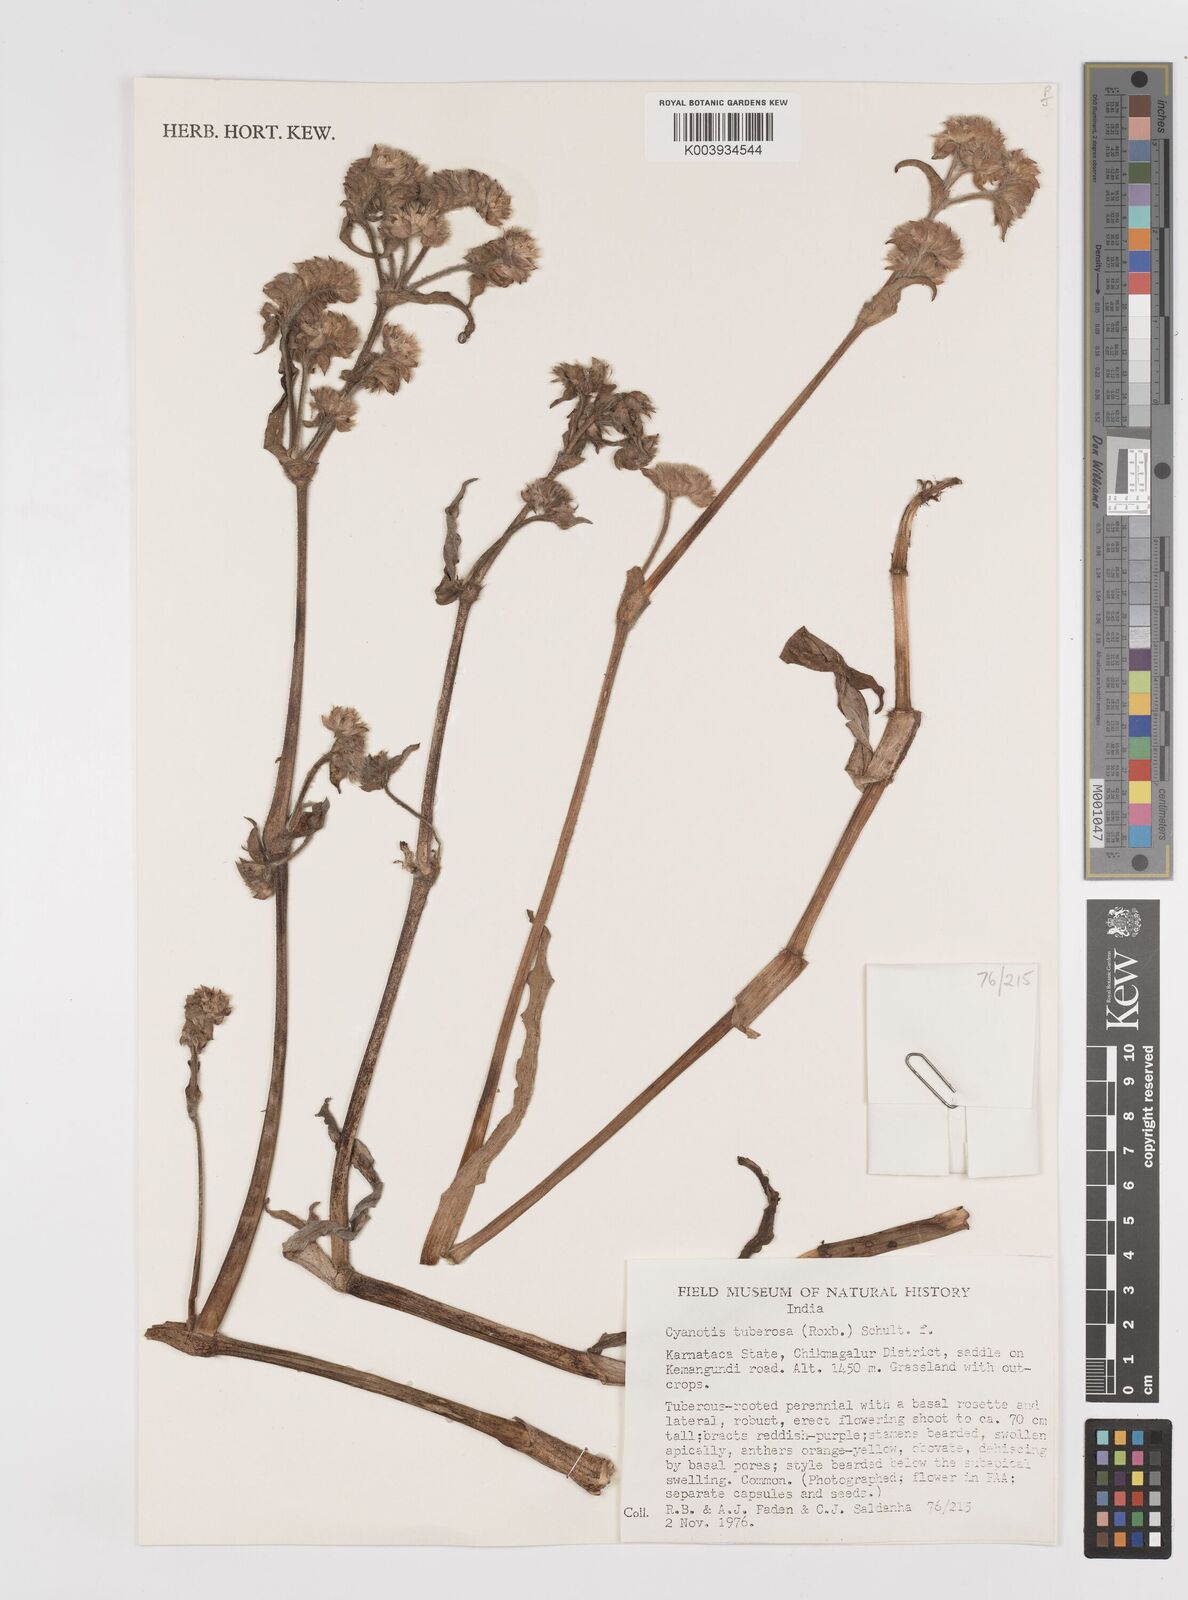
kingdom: Plantae
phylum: Tracheophyta
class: Liliopsida
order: Commelinales
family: Commelinaceae
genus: Cyanotis
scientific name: Cyanotis tuberosa
